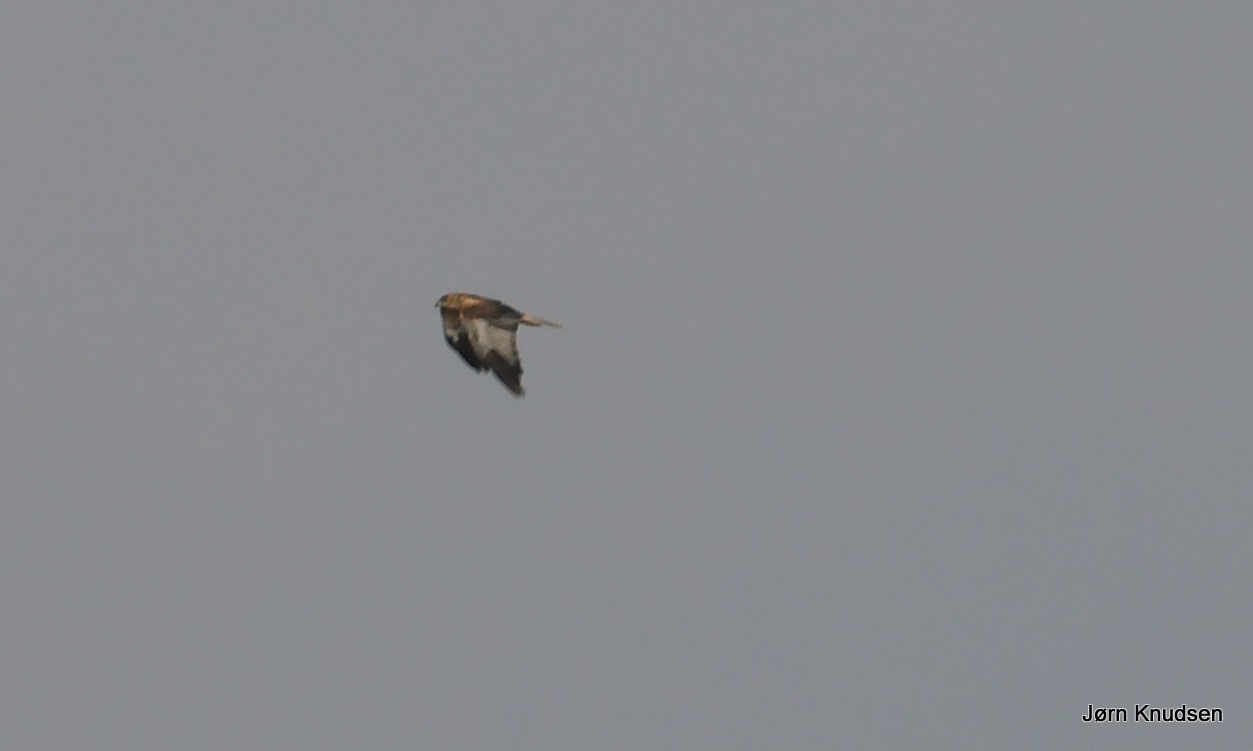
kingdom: Animalia
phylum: Chordata
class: Aves
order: Accipitriformes
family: Accipitridae
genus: Circus
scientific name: Circus aeruginosus
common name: Rørhøg
